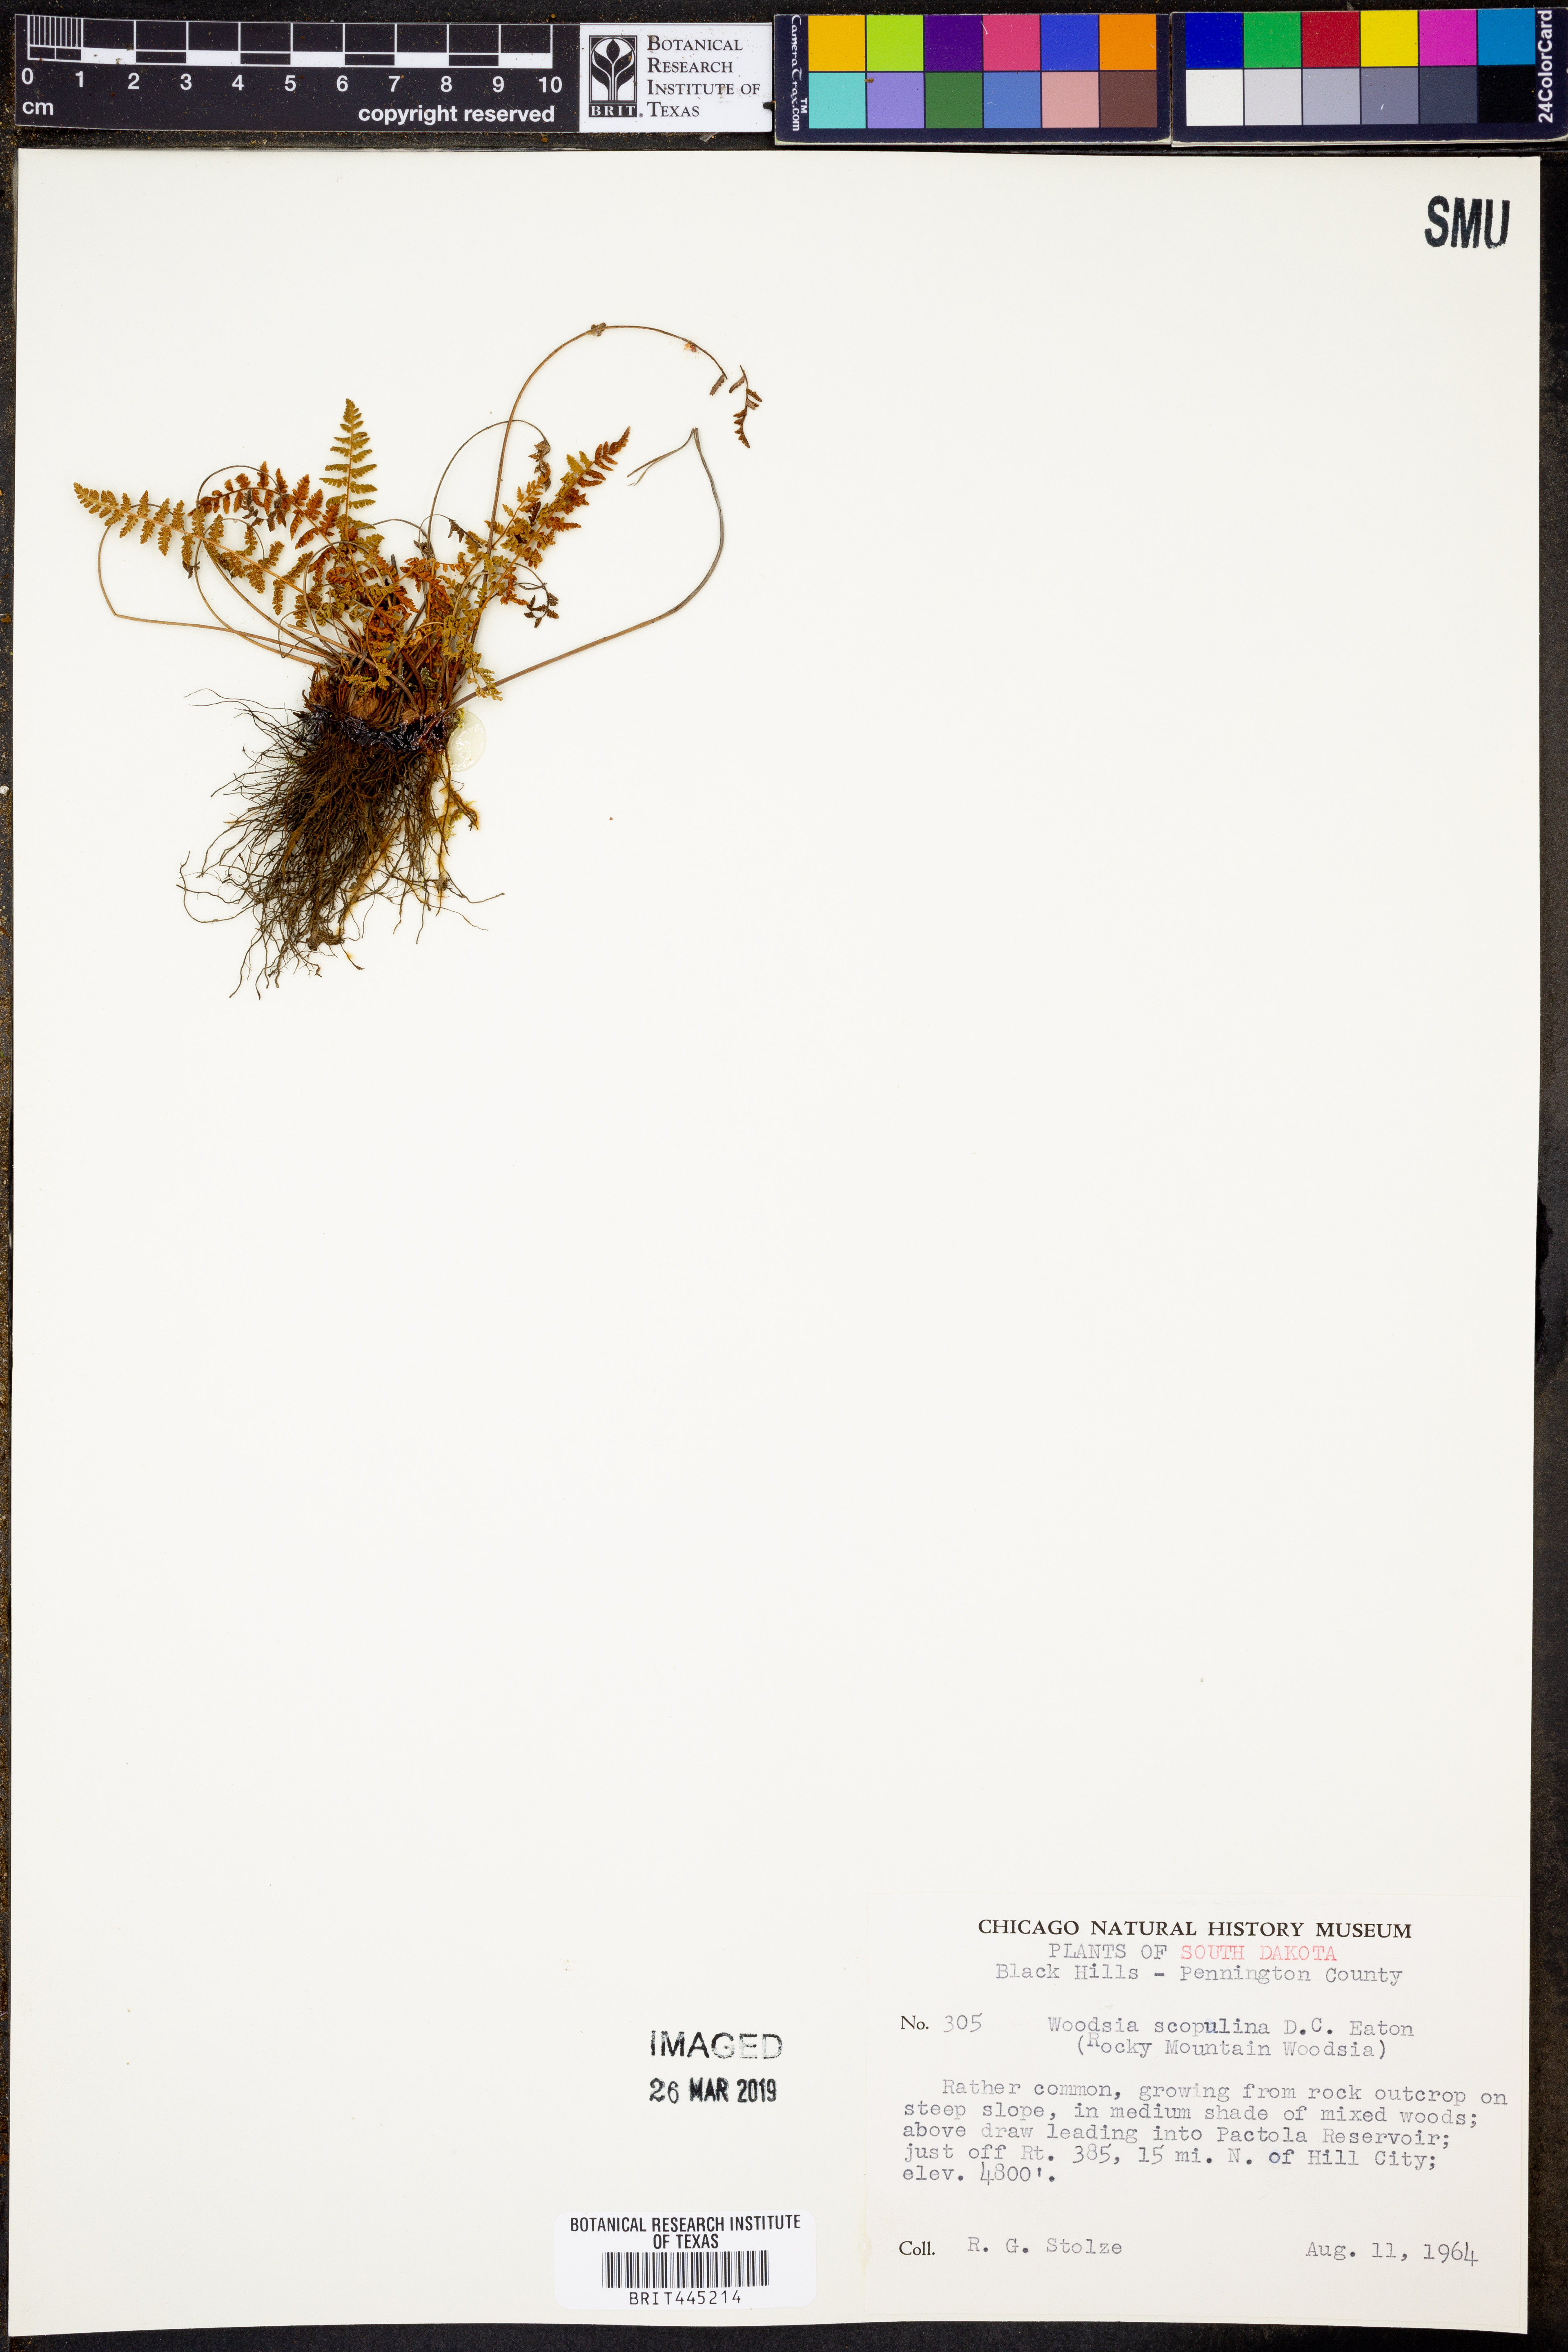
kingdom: Plantae
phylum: Tracheophyta
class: Polypodiopsida
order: Polypodiales
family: Woodsiaceae
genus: Physematium
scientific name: Physematium scopulinum
